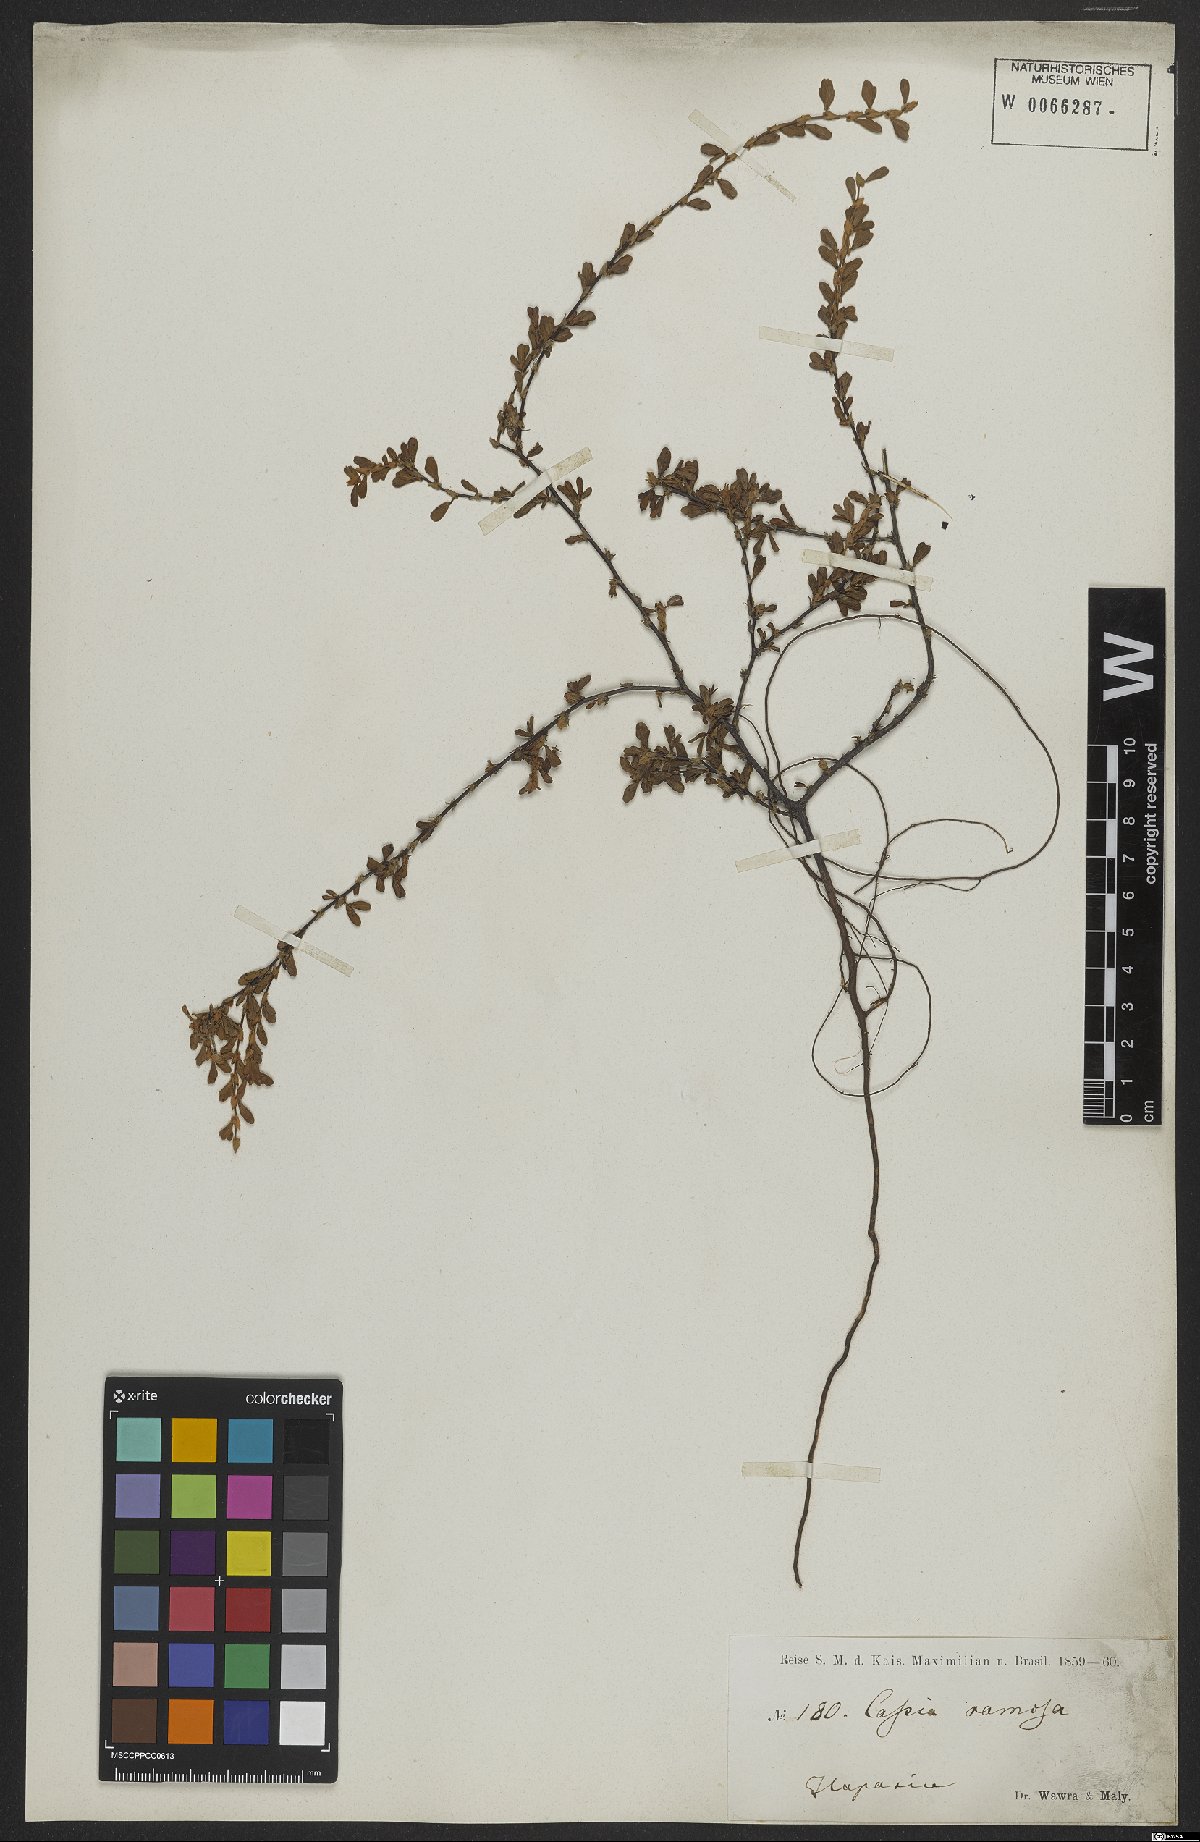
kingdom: Plantae
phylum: Tracheophyta
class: Magnoliopsida
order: Fabales
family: Fabaceae
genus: Senna
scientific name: Senna uniflora
